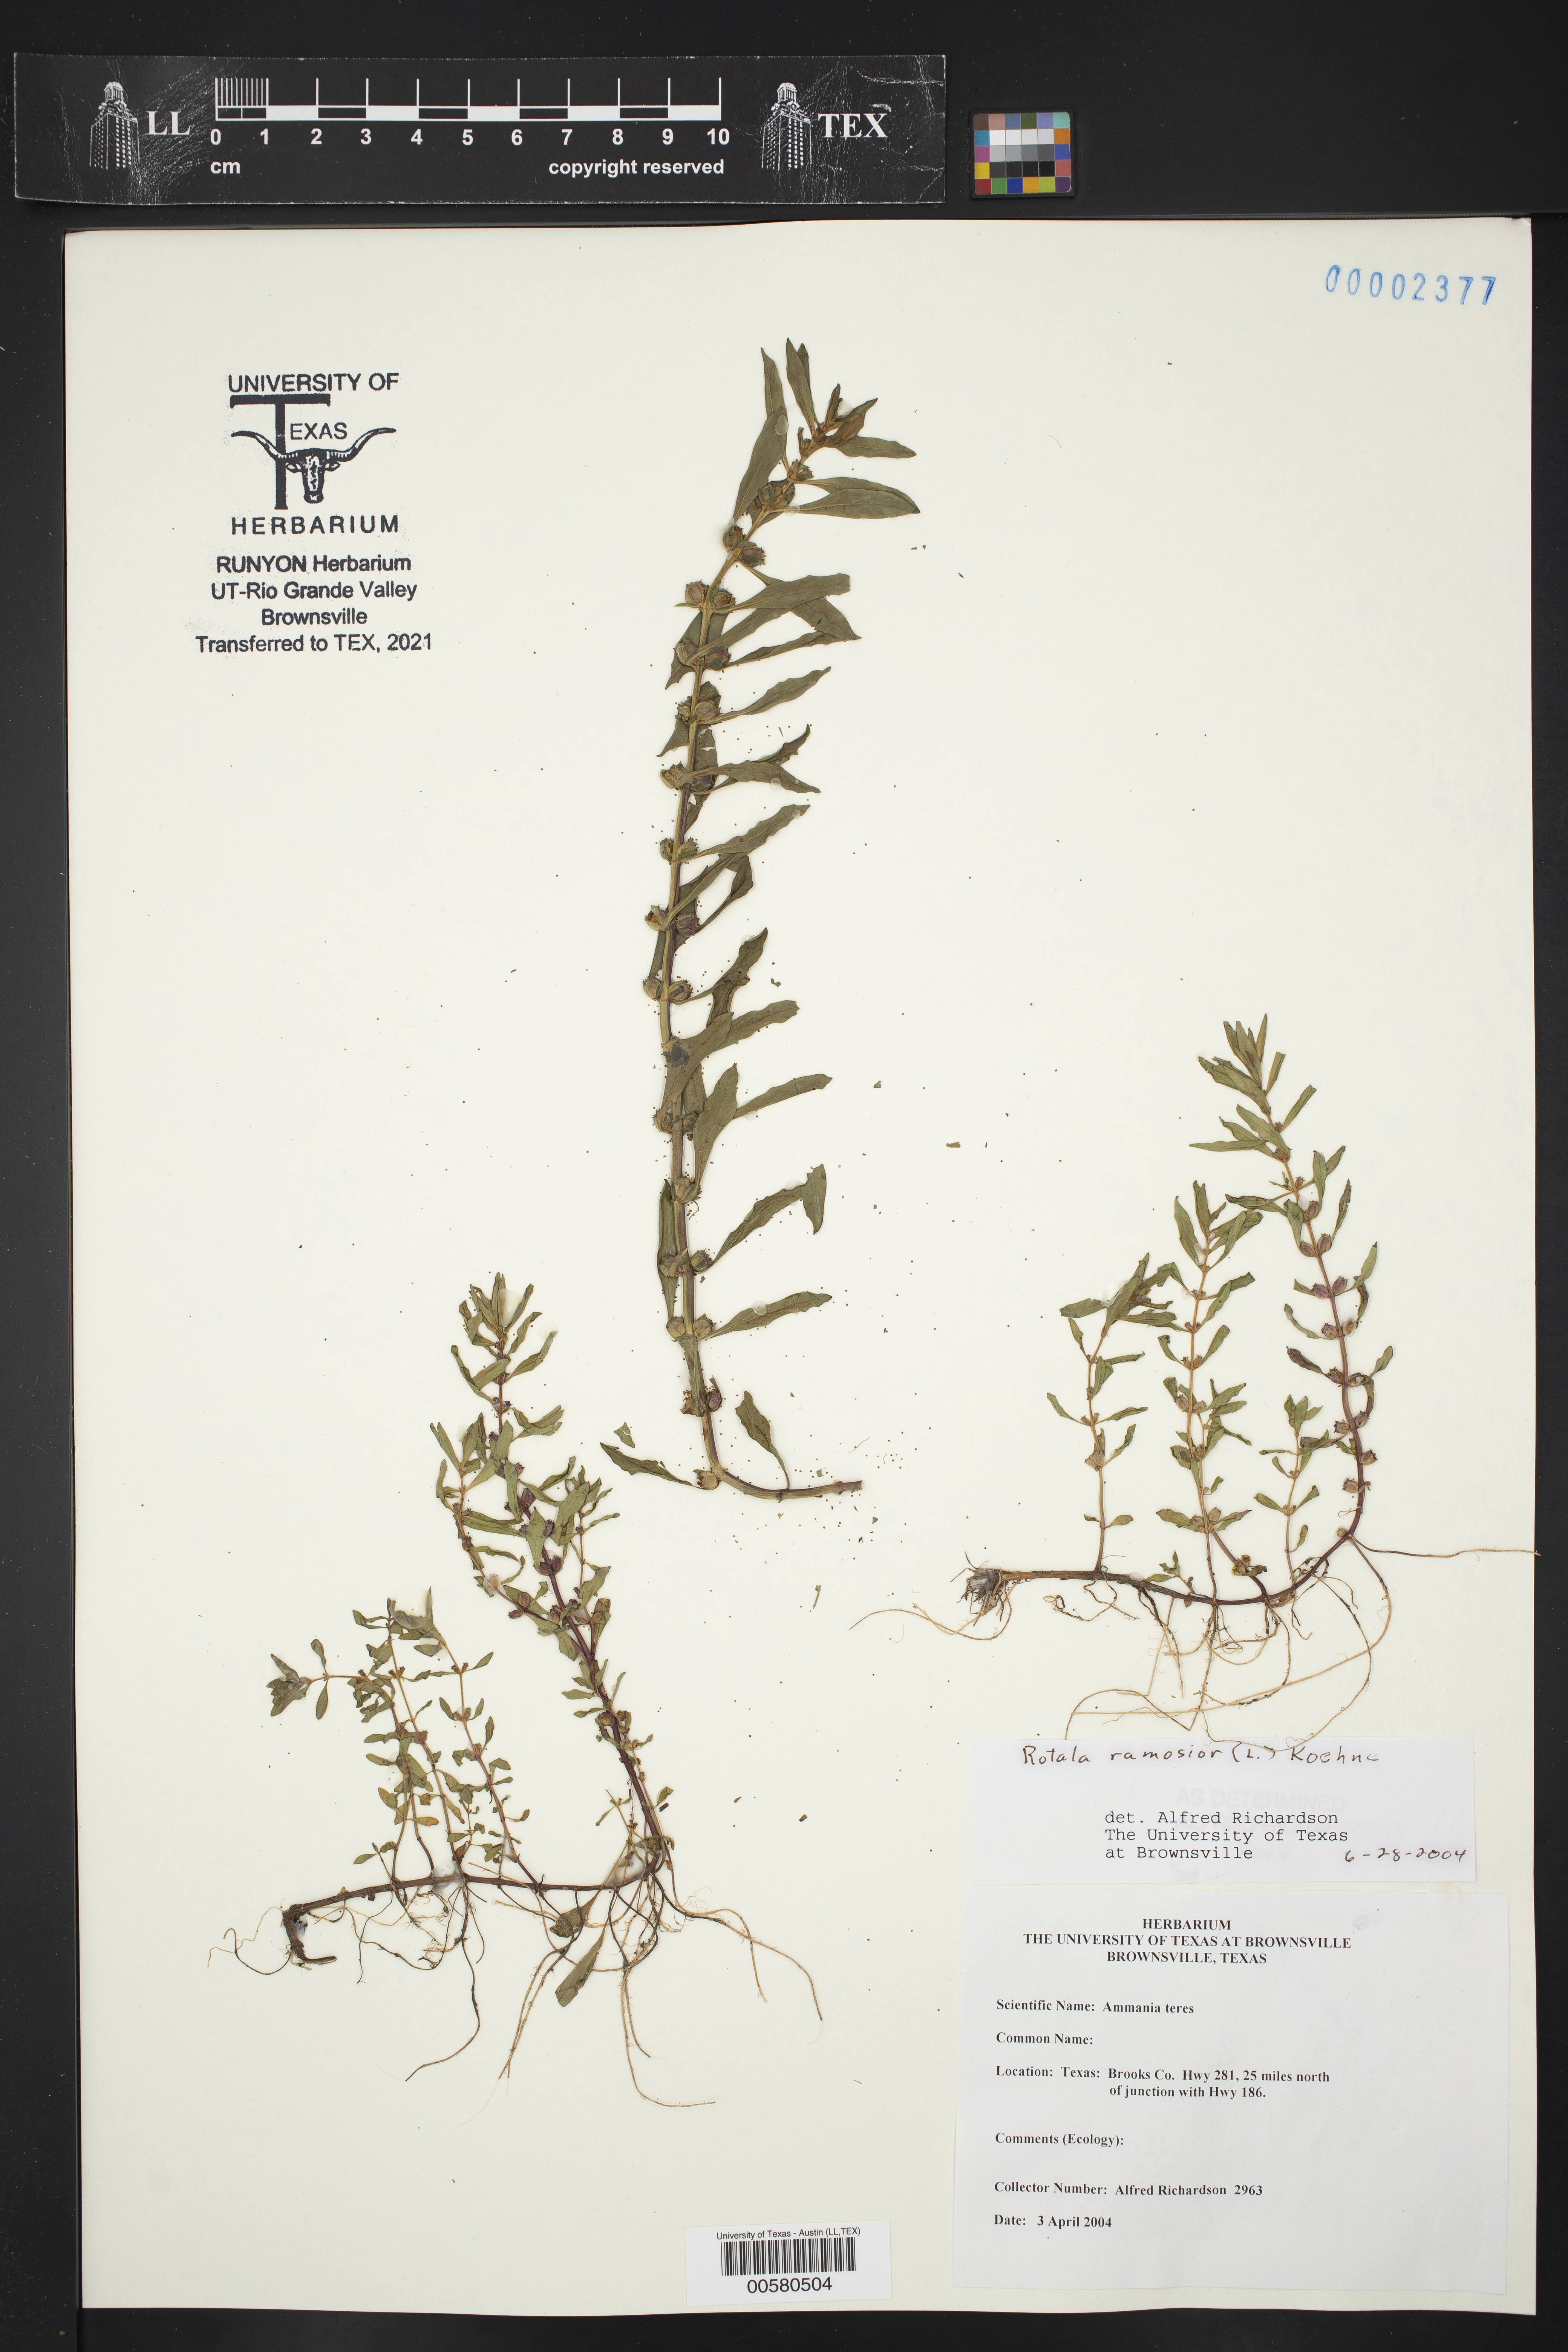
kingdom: Plantae
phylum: Tracheophyta
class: Magnoliopsida
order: Myrtales
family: Lythraceae
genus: Rotala
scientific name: Rotala ramosior
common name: Lowland rotala
